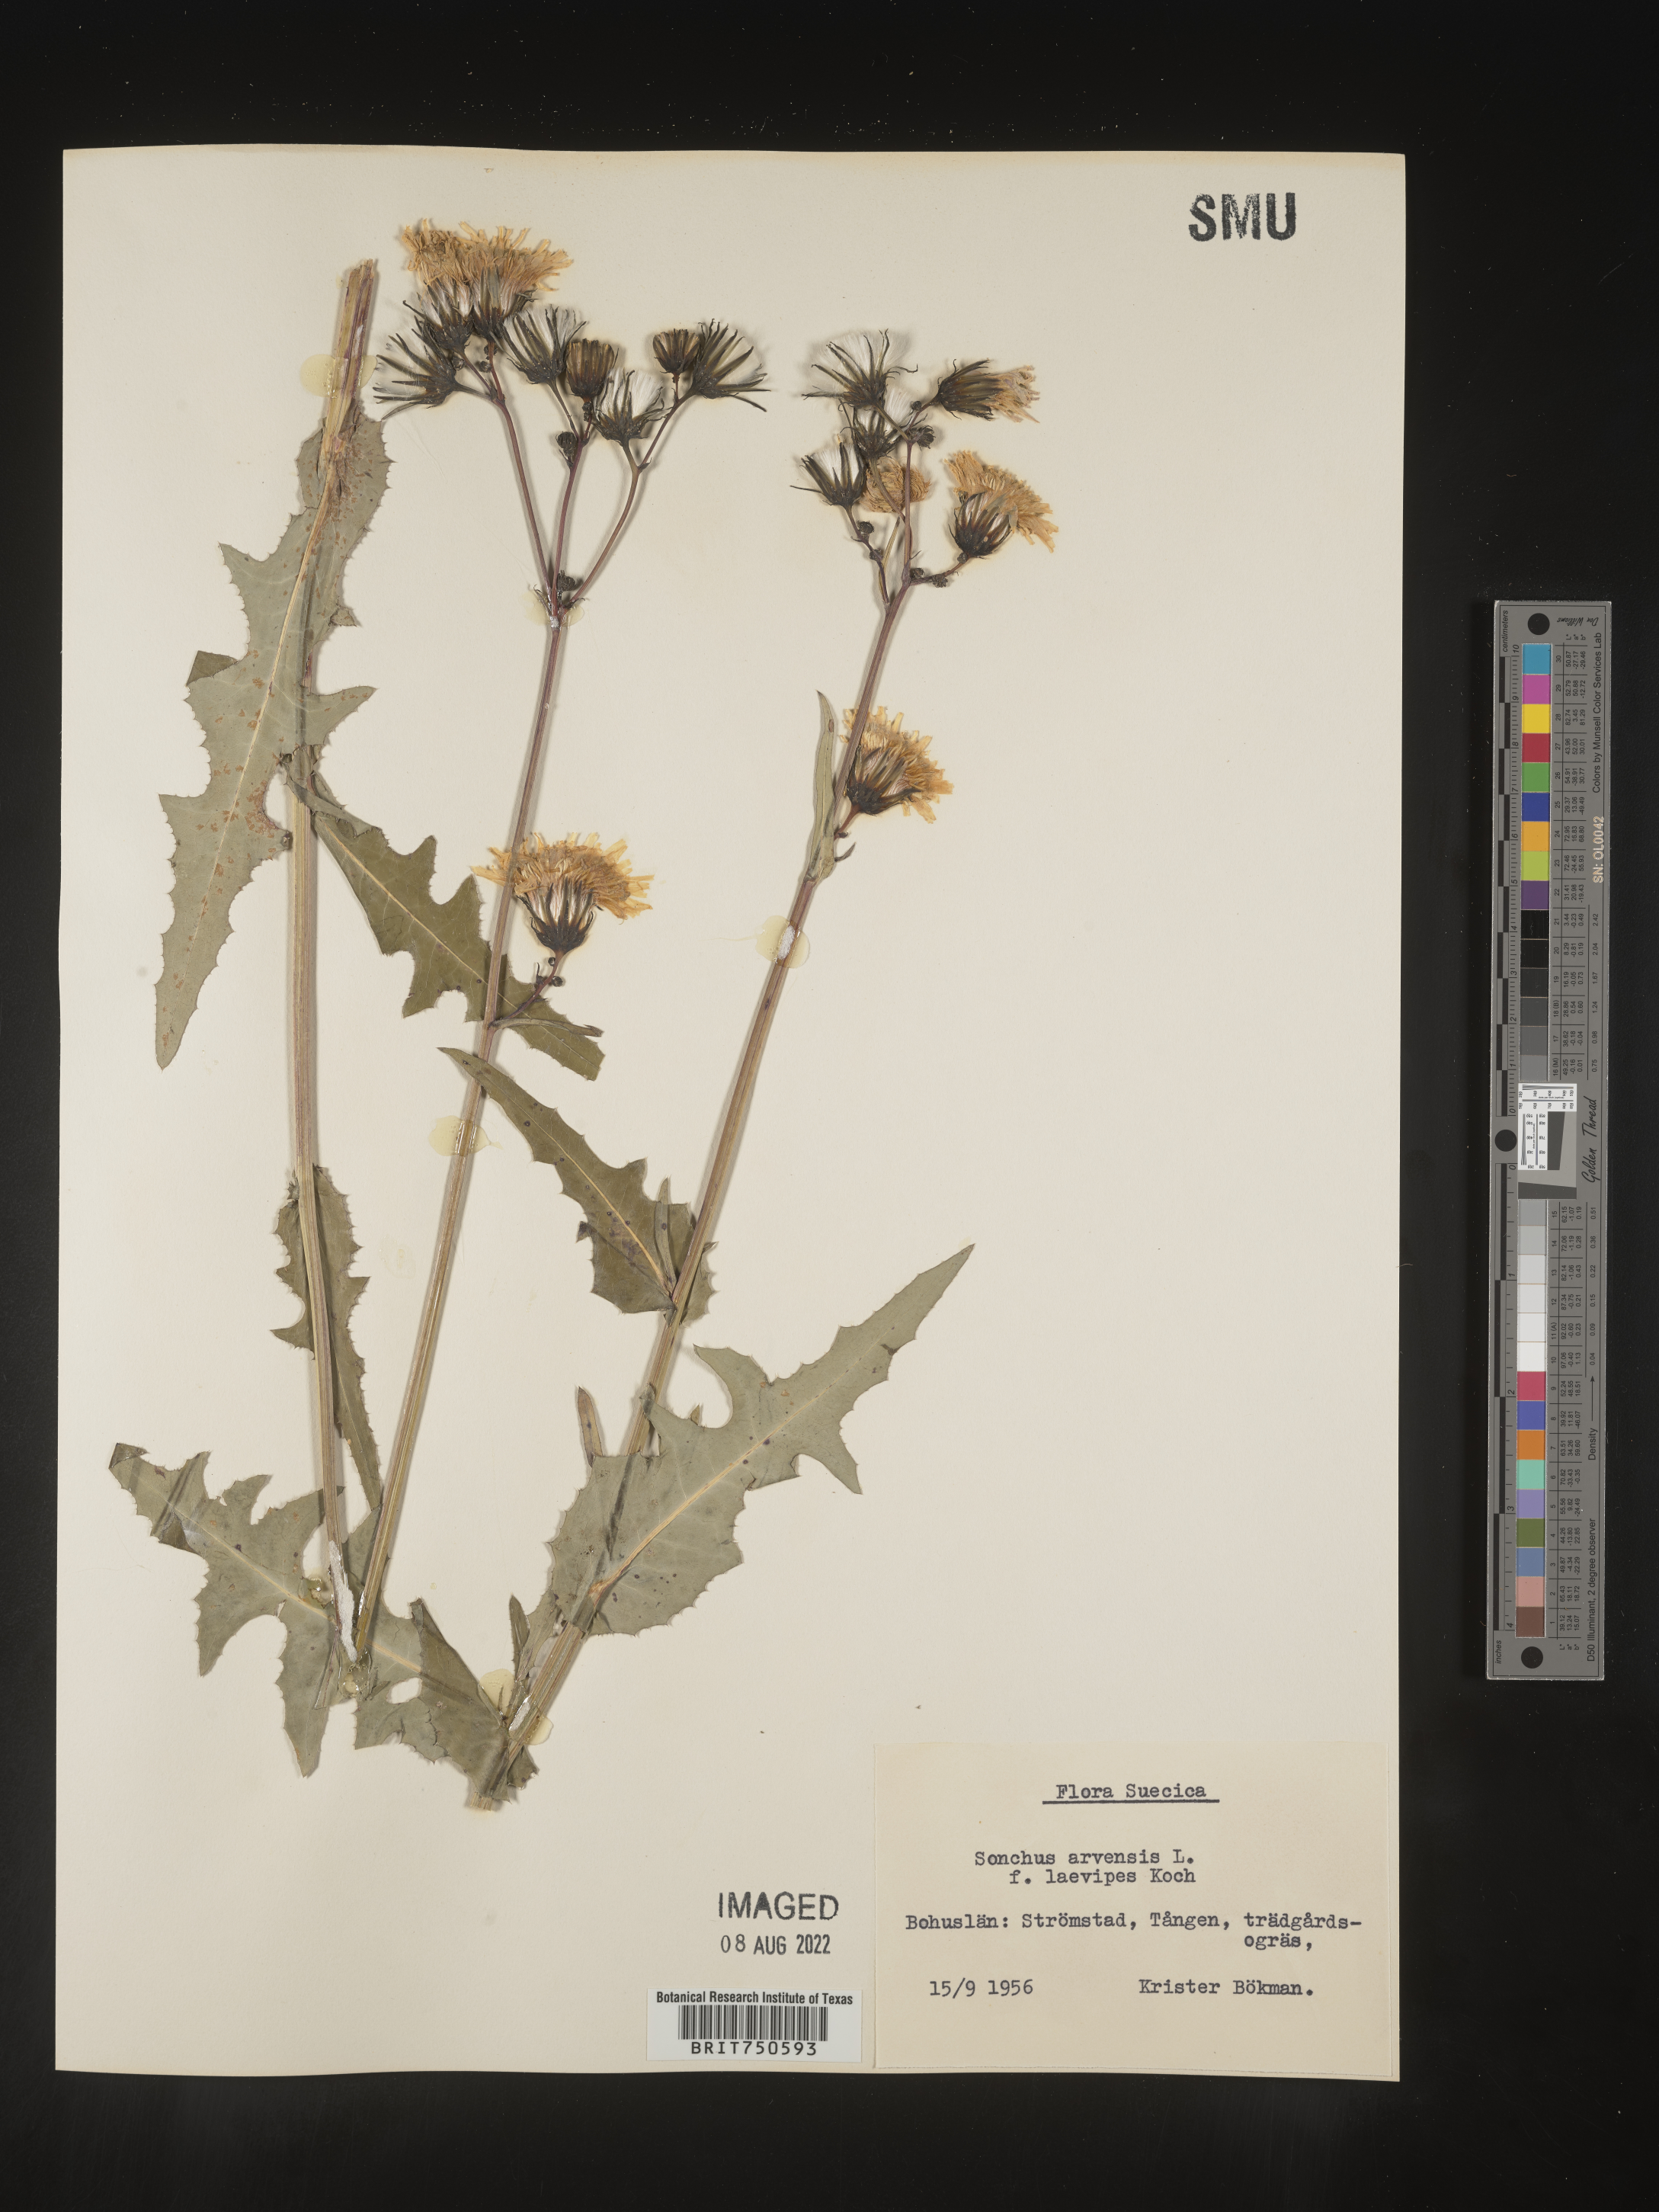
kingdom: Plantae
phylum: Tracheophyta
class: Magnoliopsida
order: Asterales
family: Asteraceae
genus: Sonchus
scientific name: Sonchus
